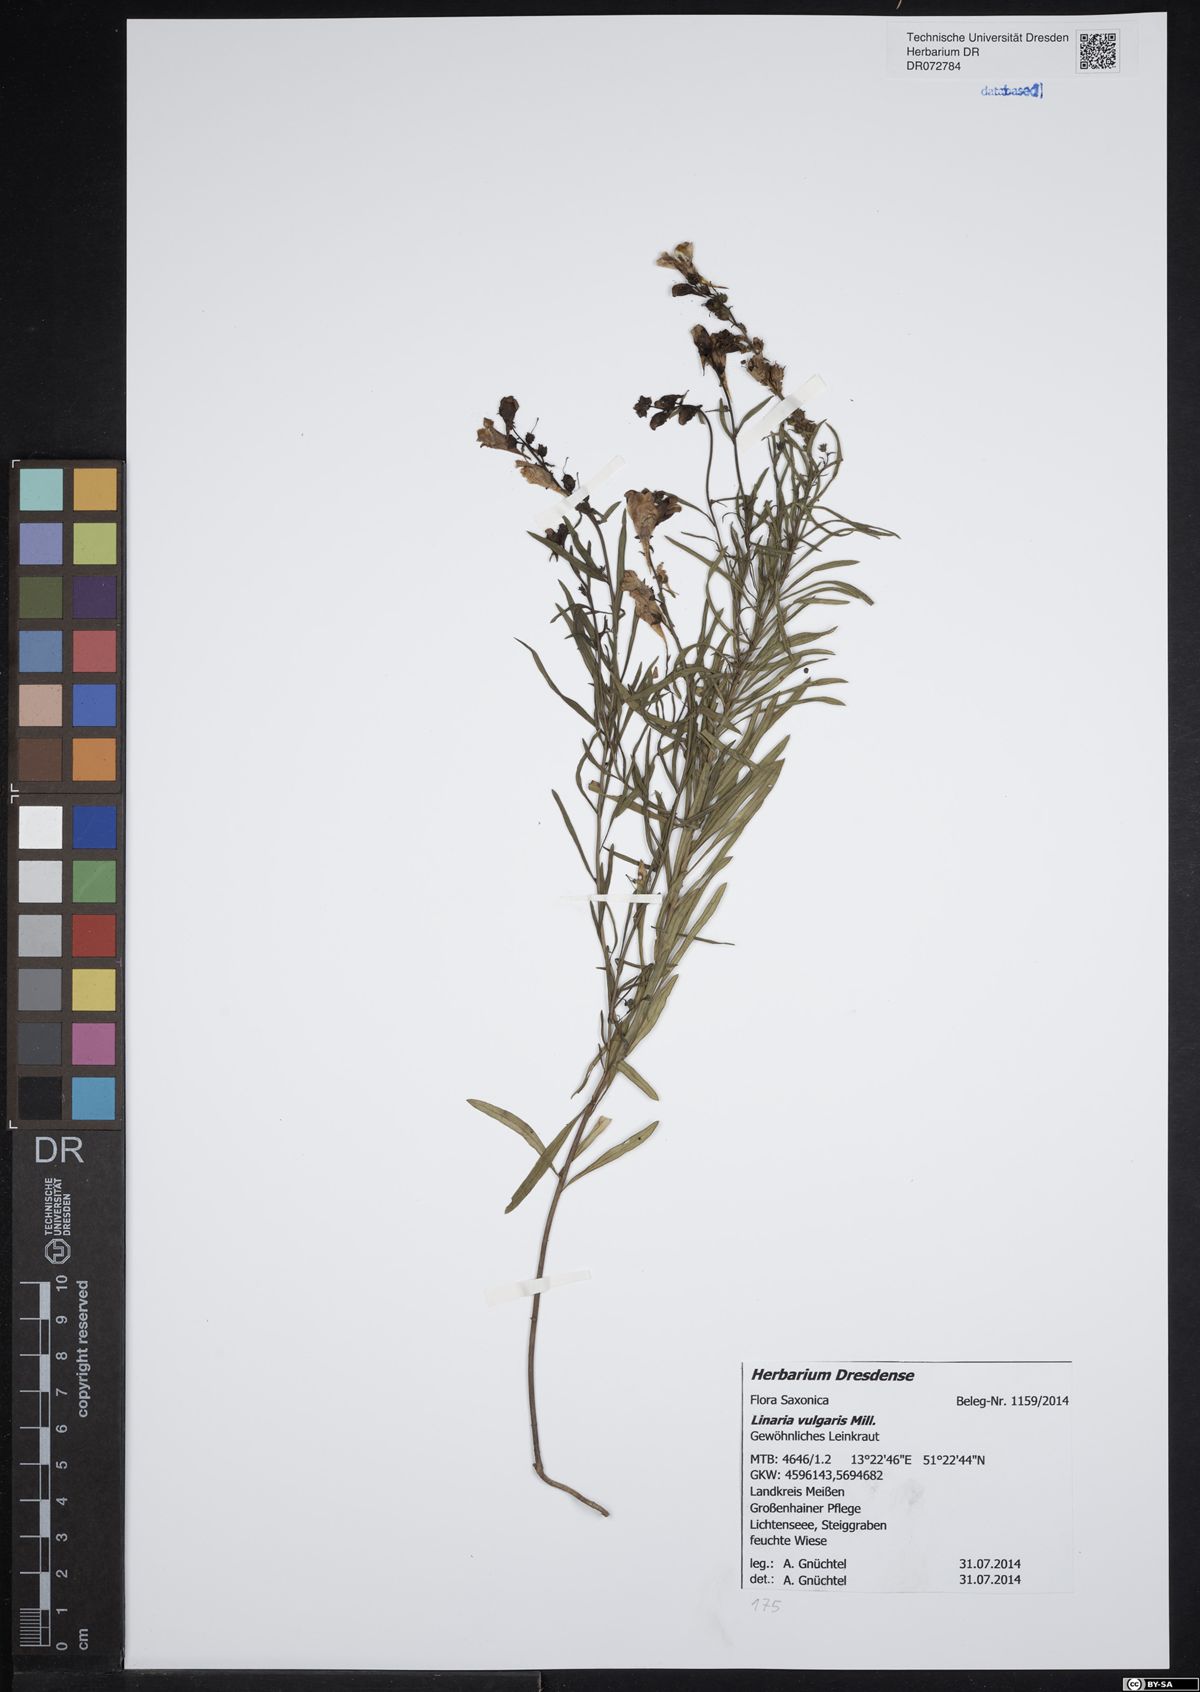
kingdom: Plantae
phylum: Tracheophyta
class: Magnoliopsida
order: Lamiales
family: Plantaginaceae
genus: Linaria
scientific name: Linaria vulgaris
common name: Butter and eggs
